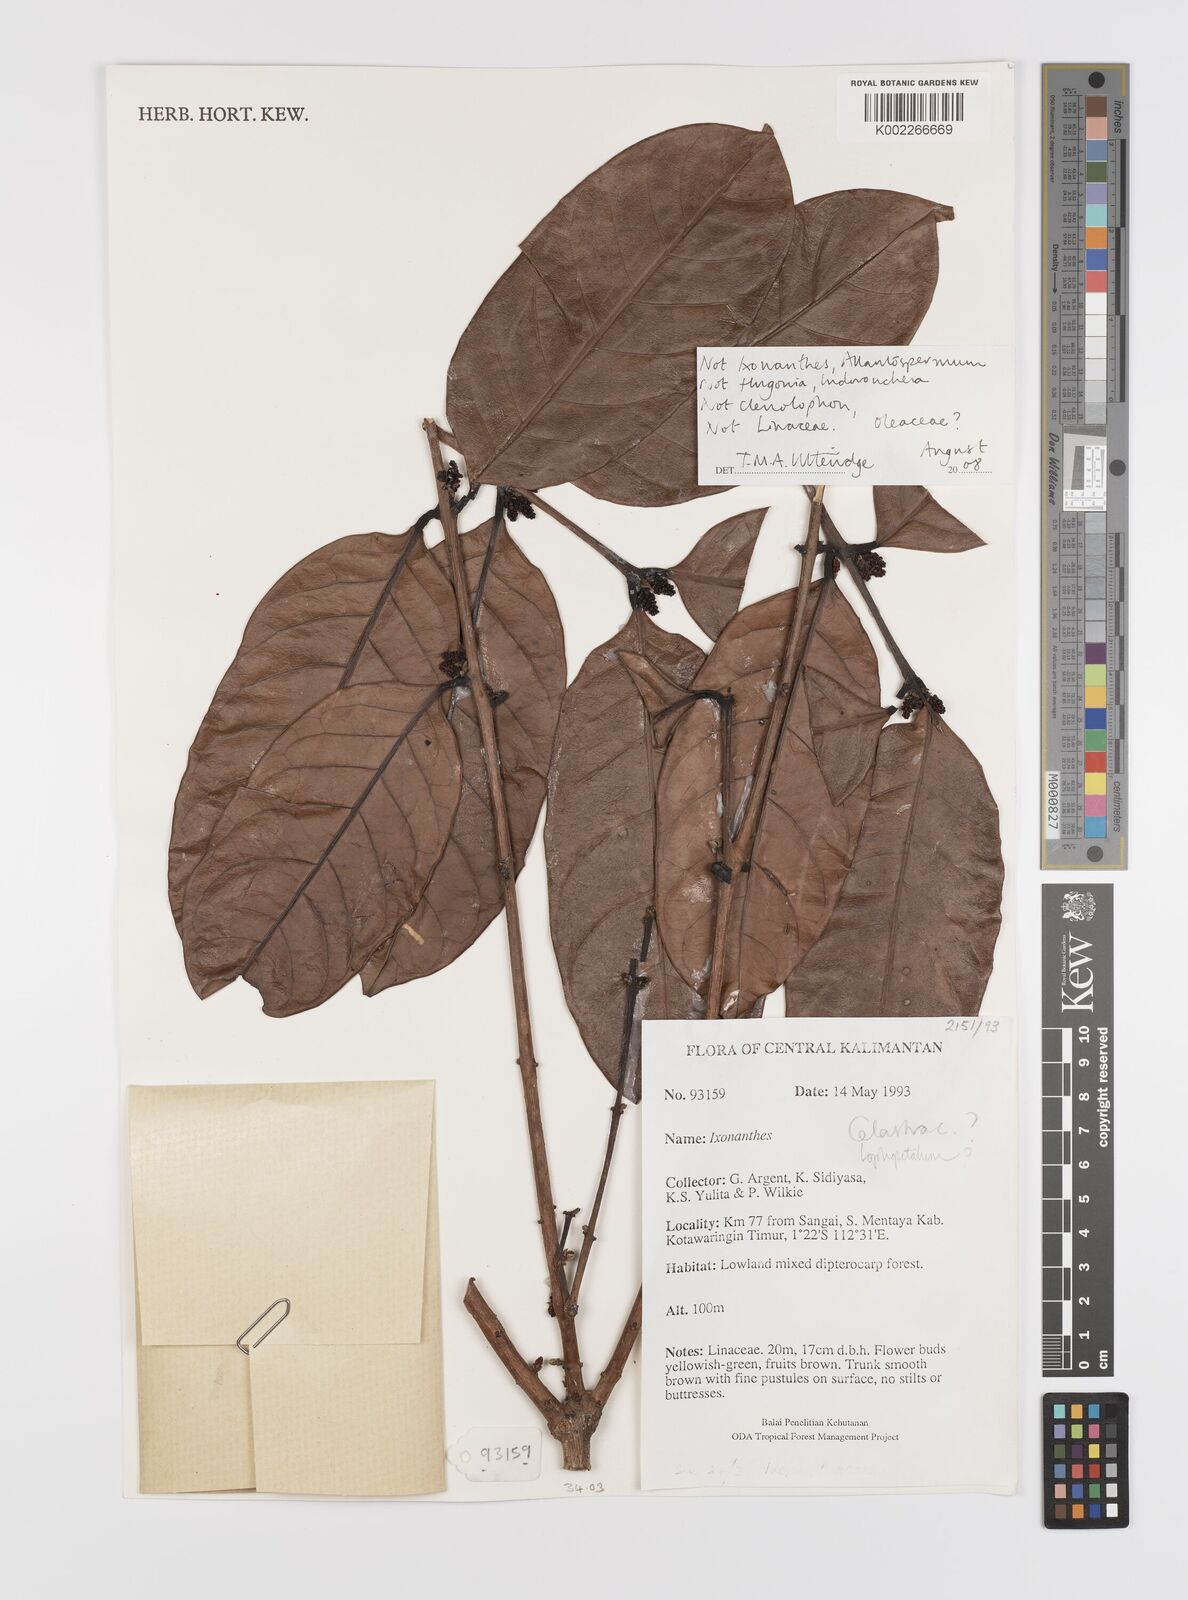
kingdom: Plantae
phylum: Tracheophyta
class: Magnoliopsida
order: Celastrales
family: Celastraceae
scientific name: Celastraceae
